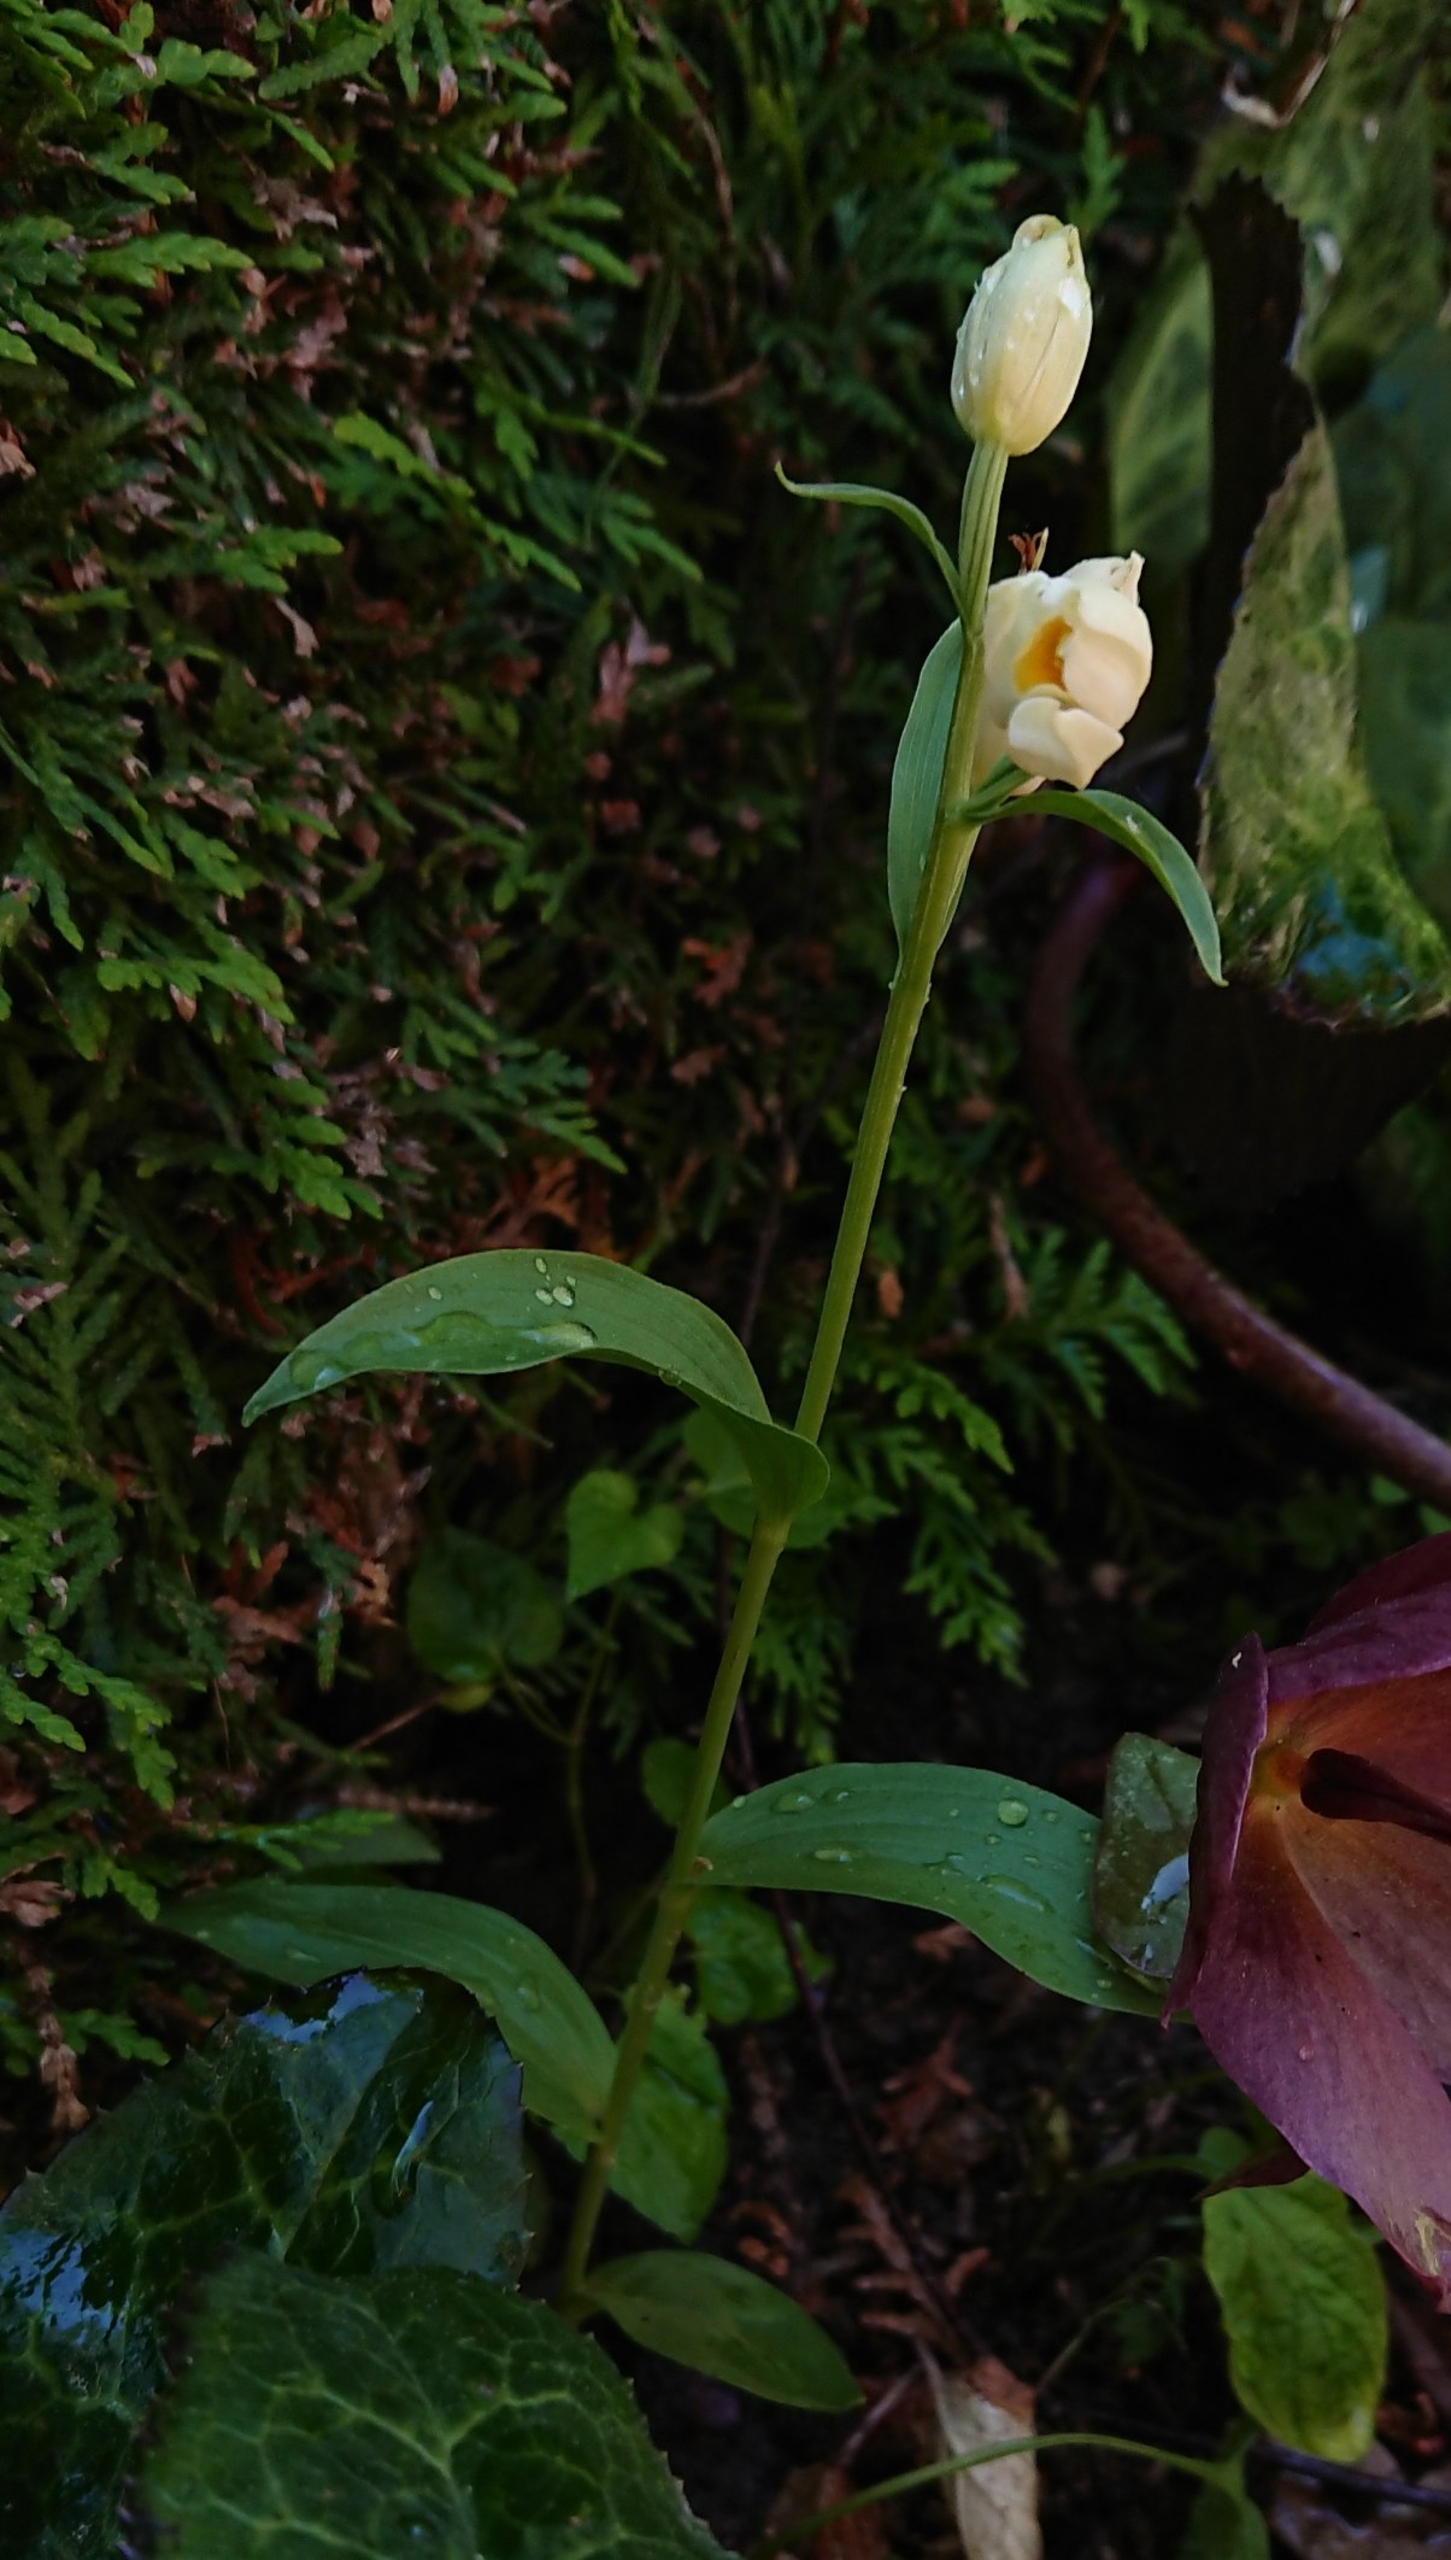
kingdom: Plantae
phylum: Tracheophyta
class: Liliopsida
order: Asparagales
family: Orchidaceae
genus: Cephalanthera
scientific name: Cephalanthera damasonium
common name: Hvidgul skovlilje
